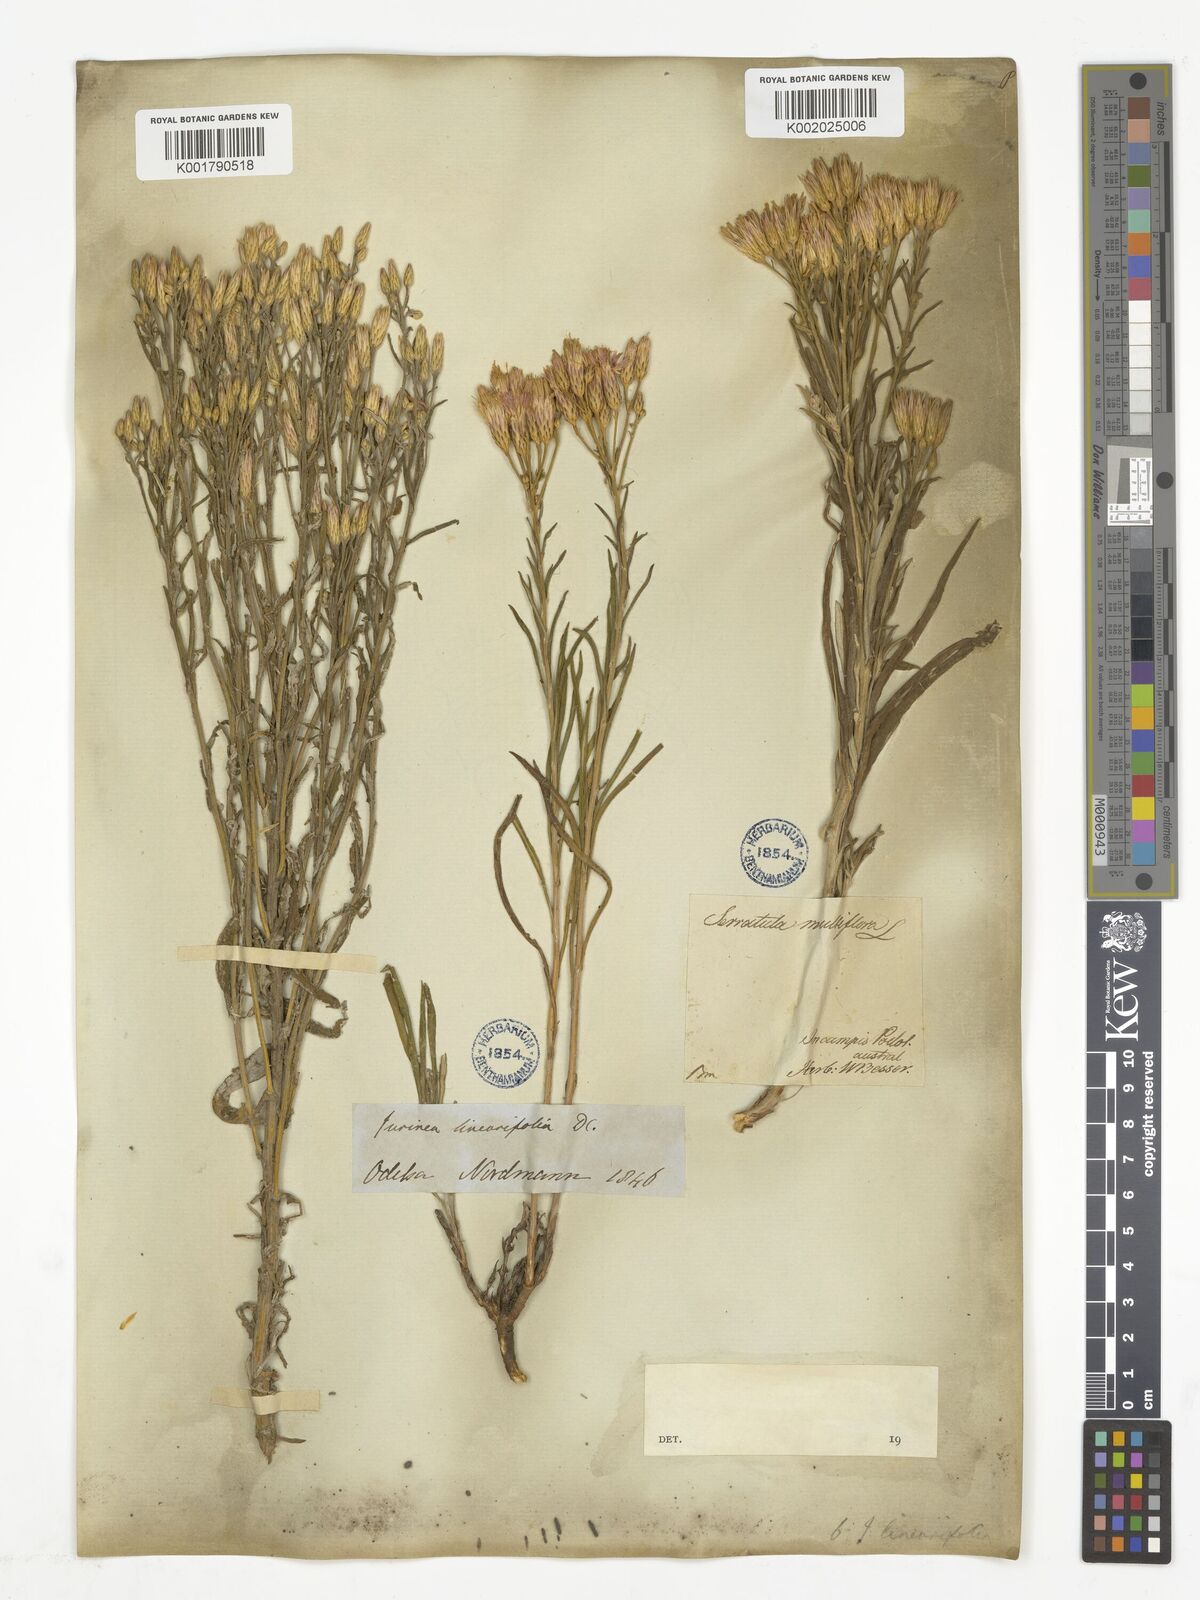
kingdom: Plantae
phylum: Tracheophyta
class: Magnoliopsida
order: Asterales
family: Asteraceae
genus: Jurinea
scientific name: Jurinea multiflora
